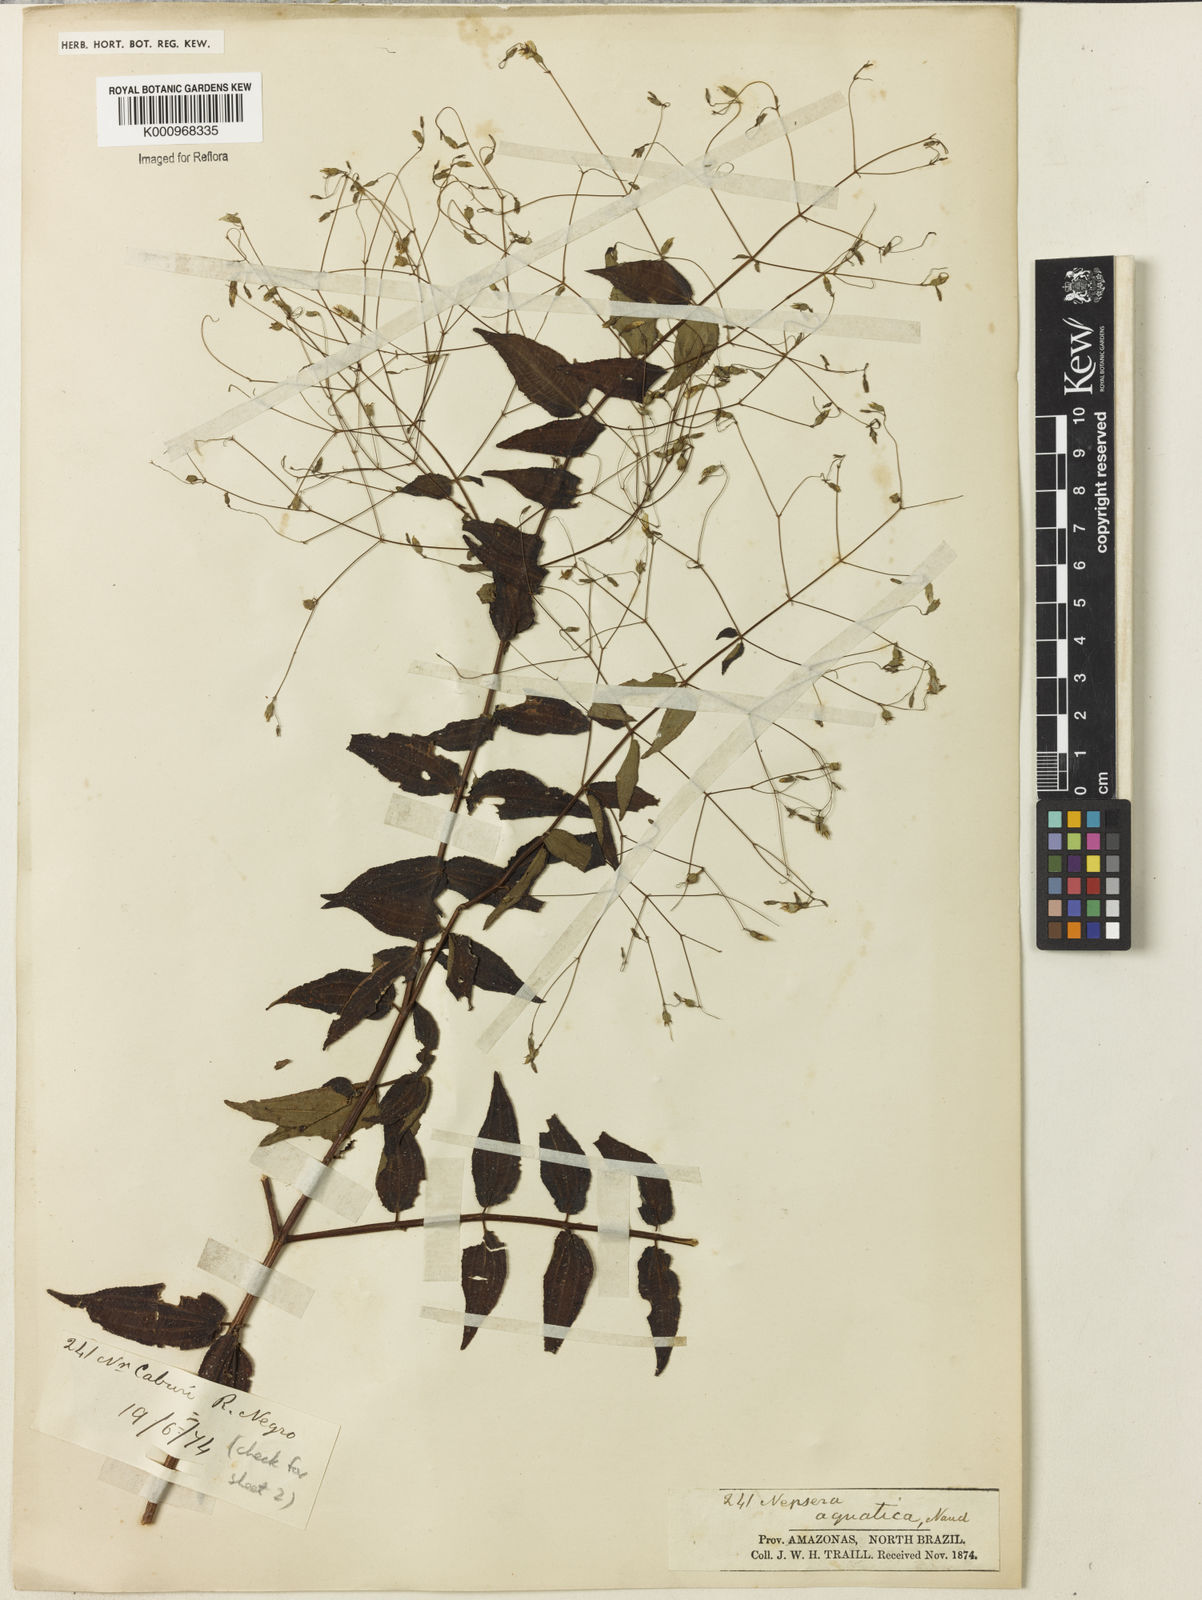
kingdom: Plantae
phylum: Tracheophyta
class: Magnoliopsida
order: Myrtales
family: Melastomataceae
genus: Nepsera
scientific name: Nepsera aquatica
